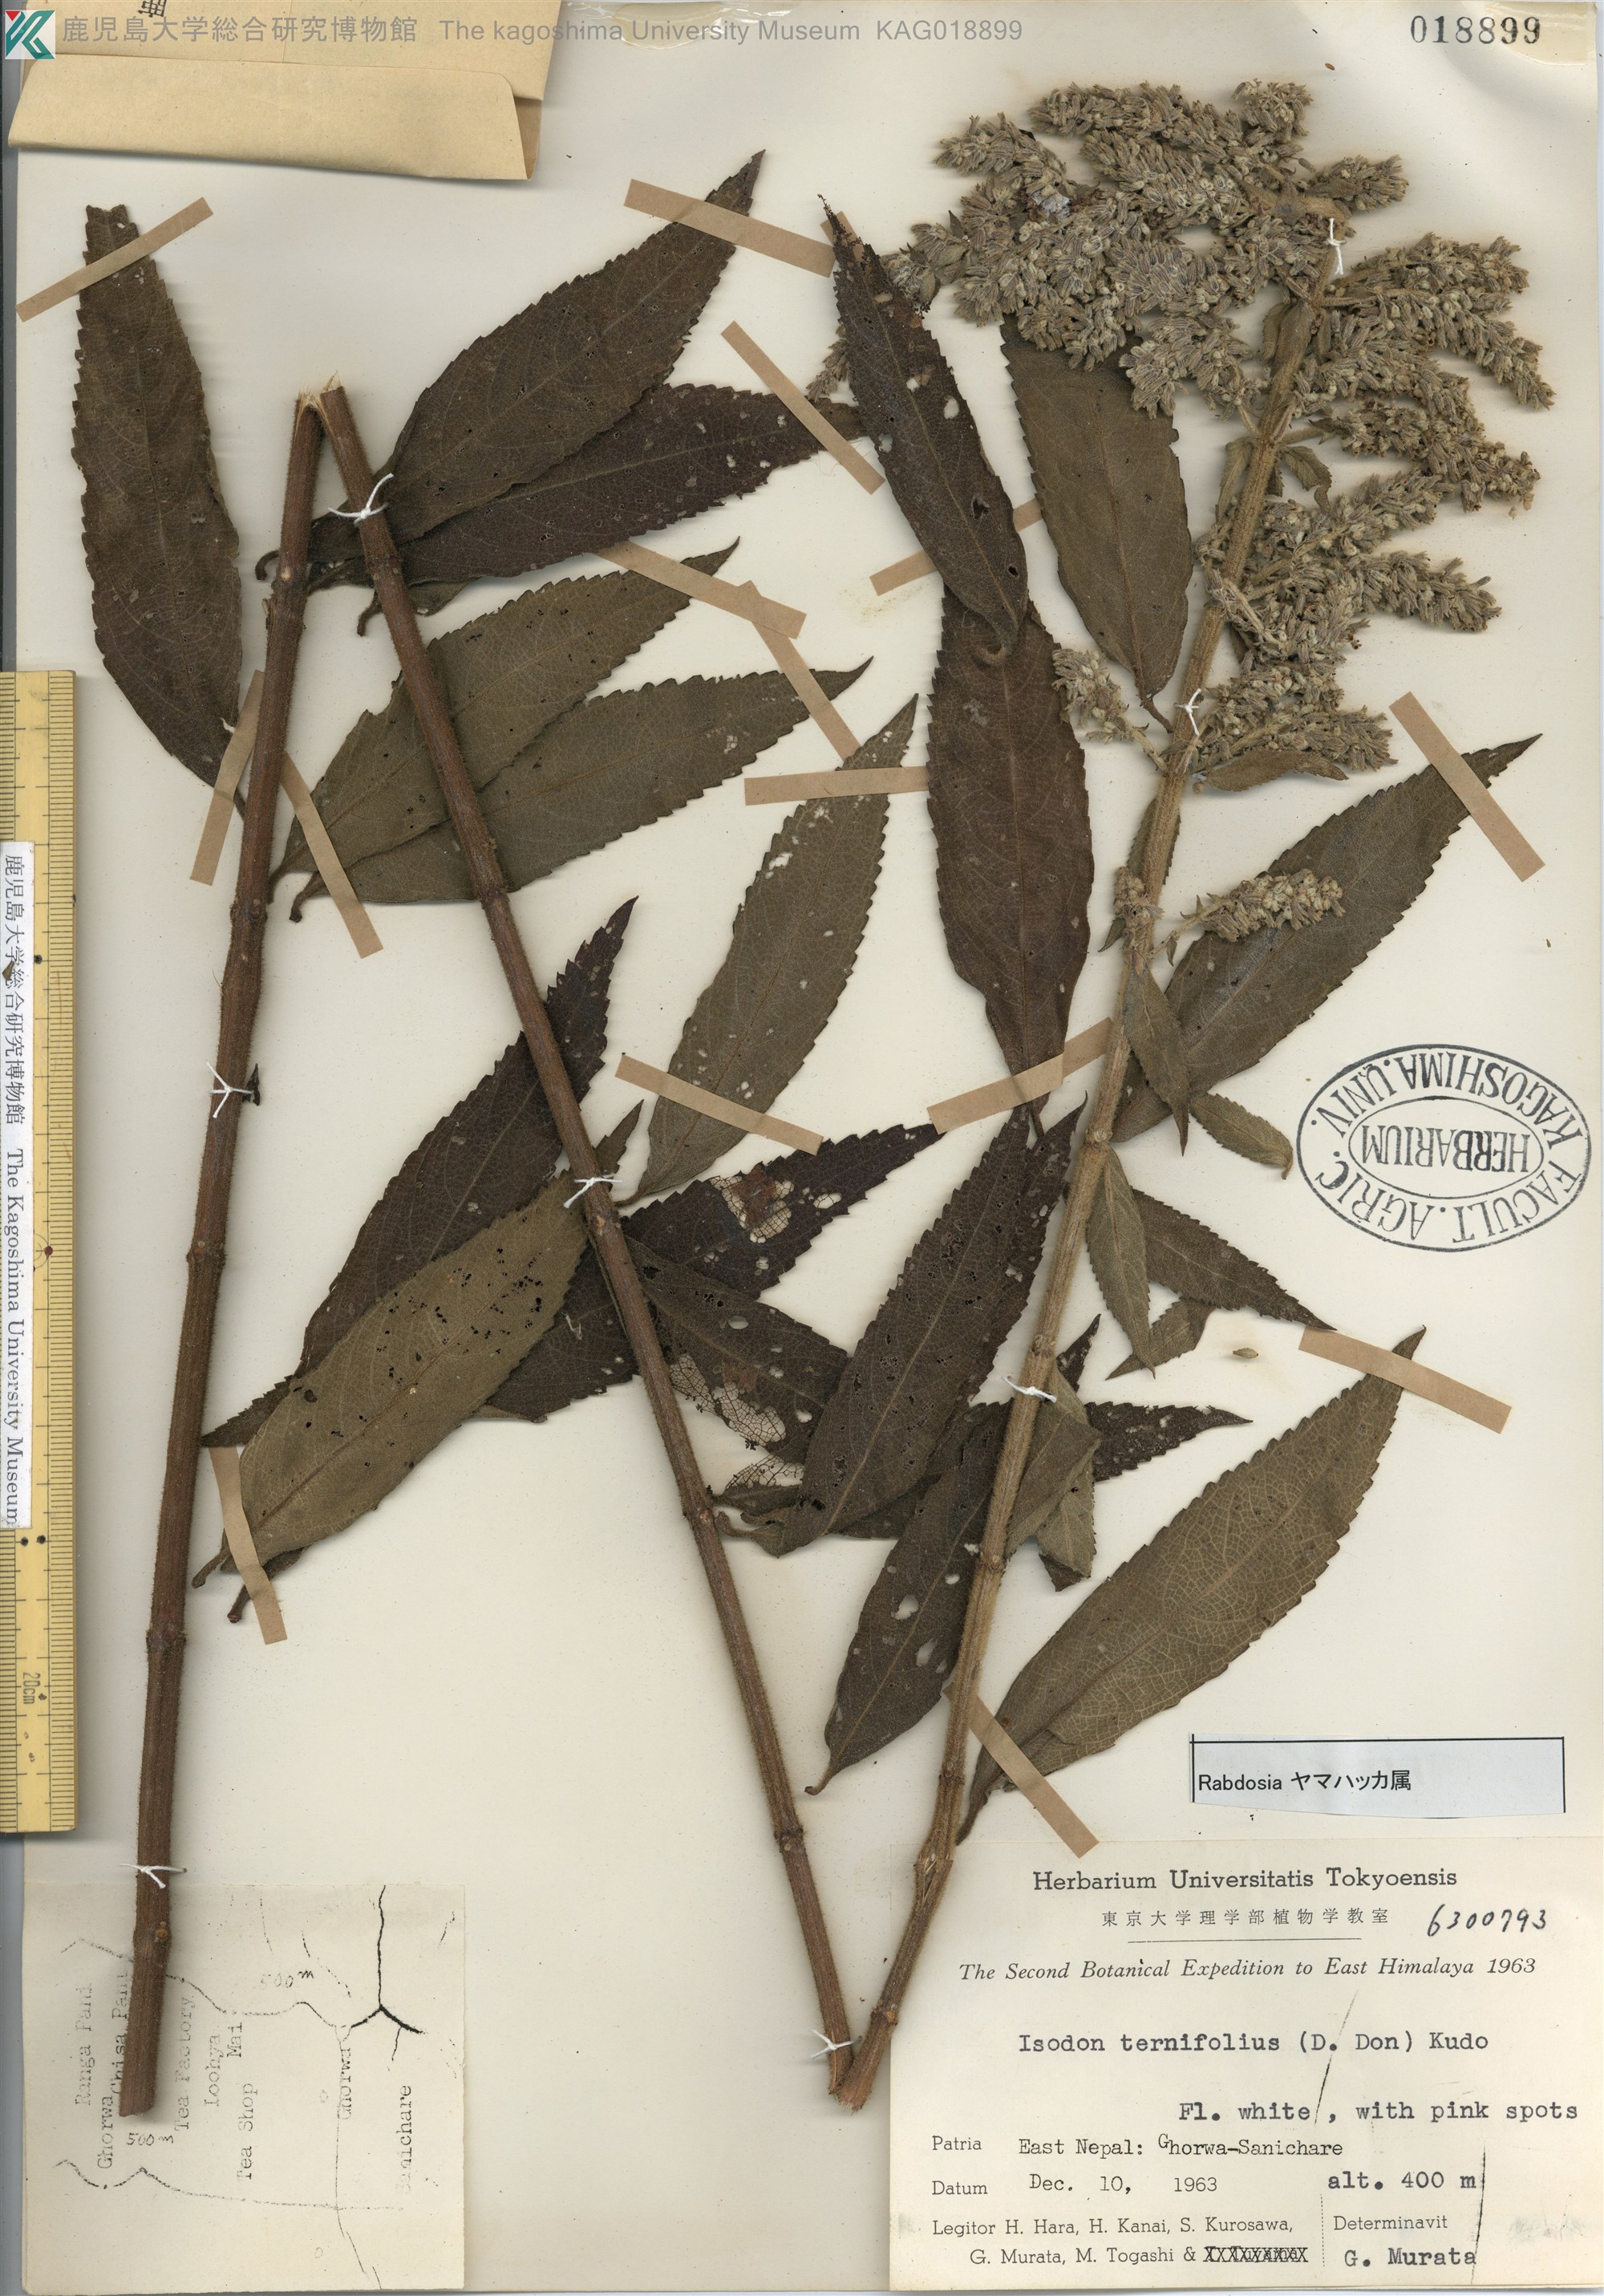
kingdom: Plantae
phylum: Tracheophyta
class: Magnoliopsida
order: Lamiales
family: Lamiaceae
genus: Isodon
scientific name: Isodon ternifolius
